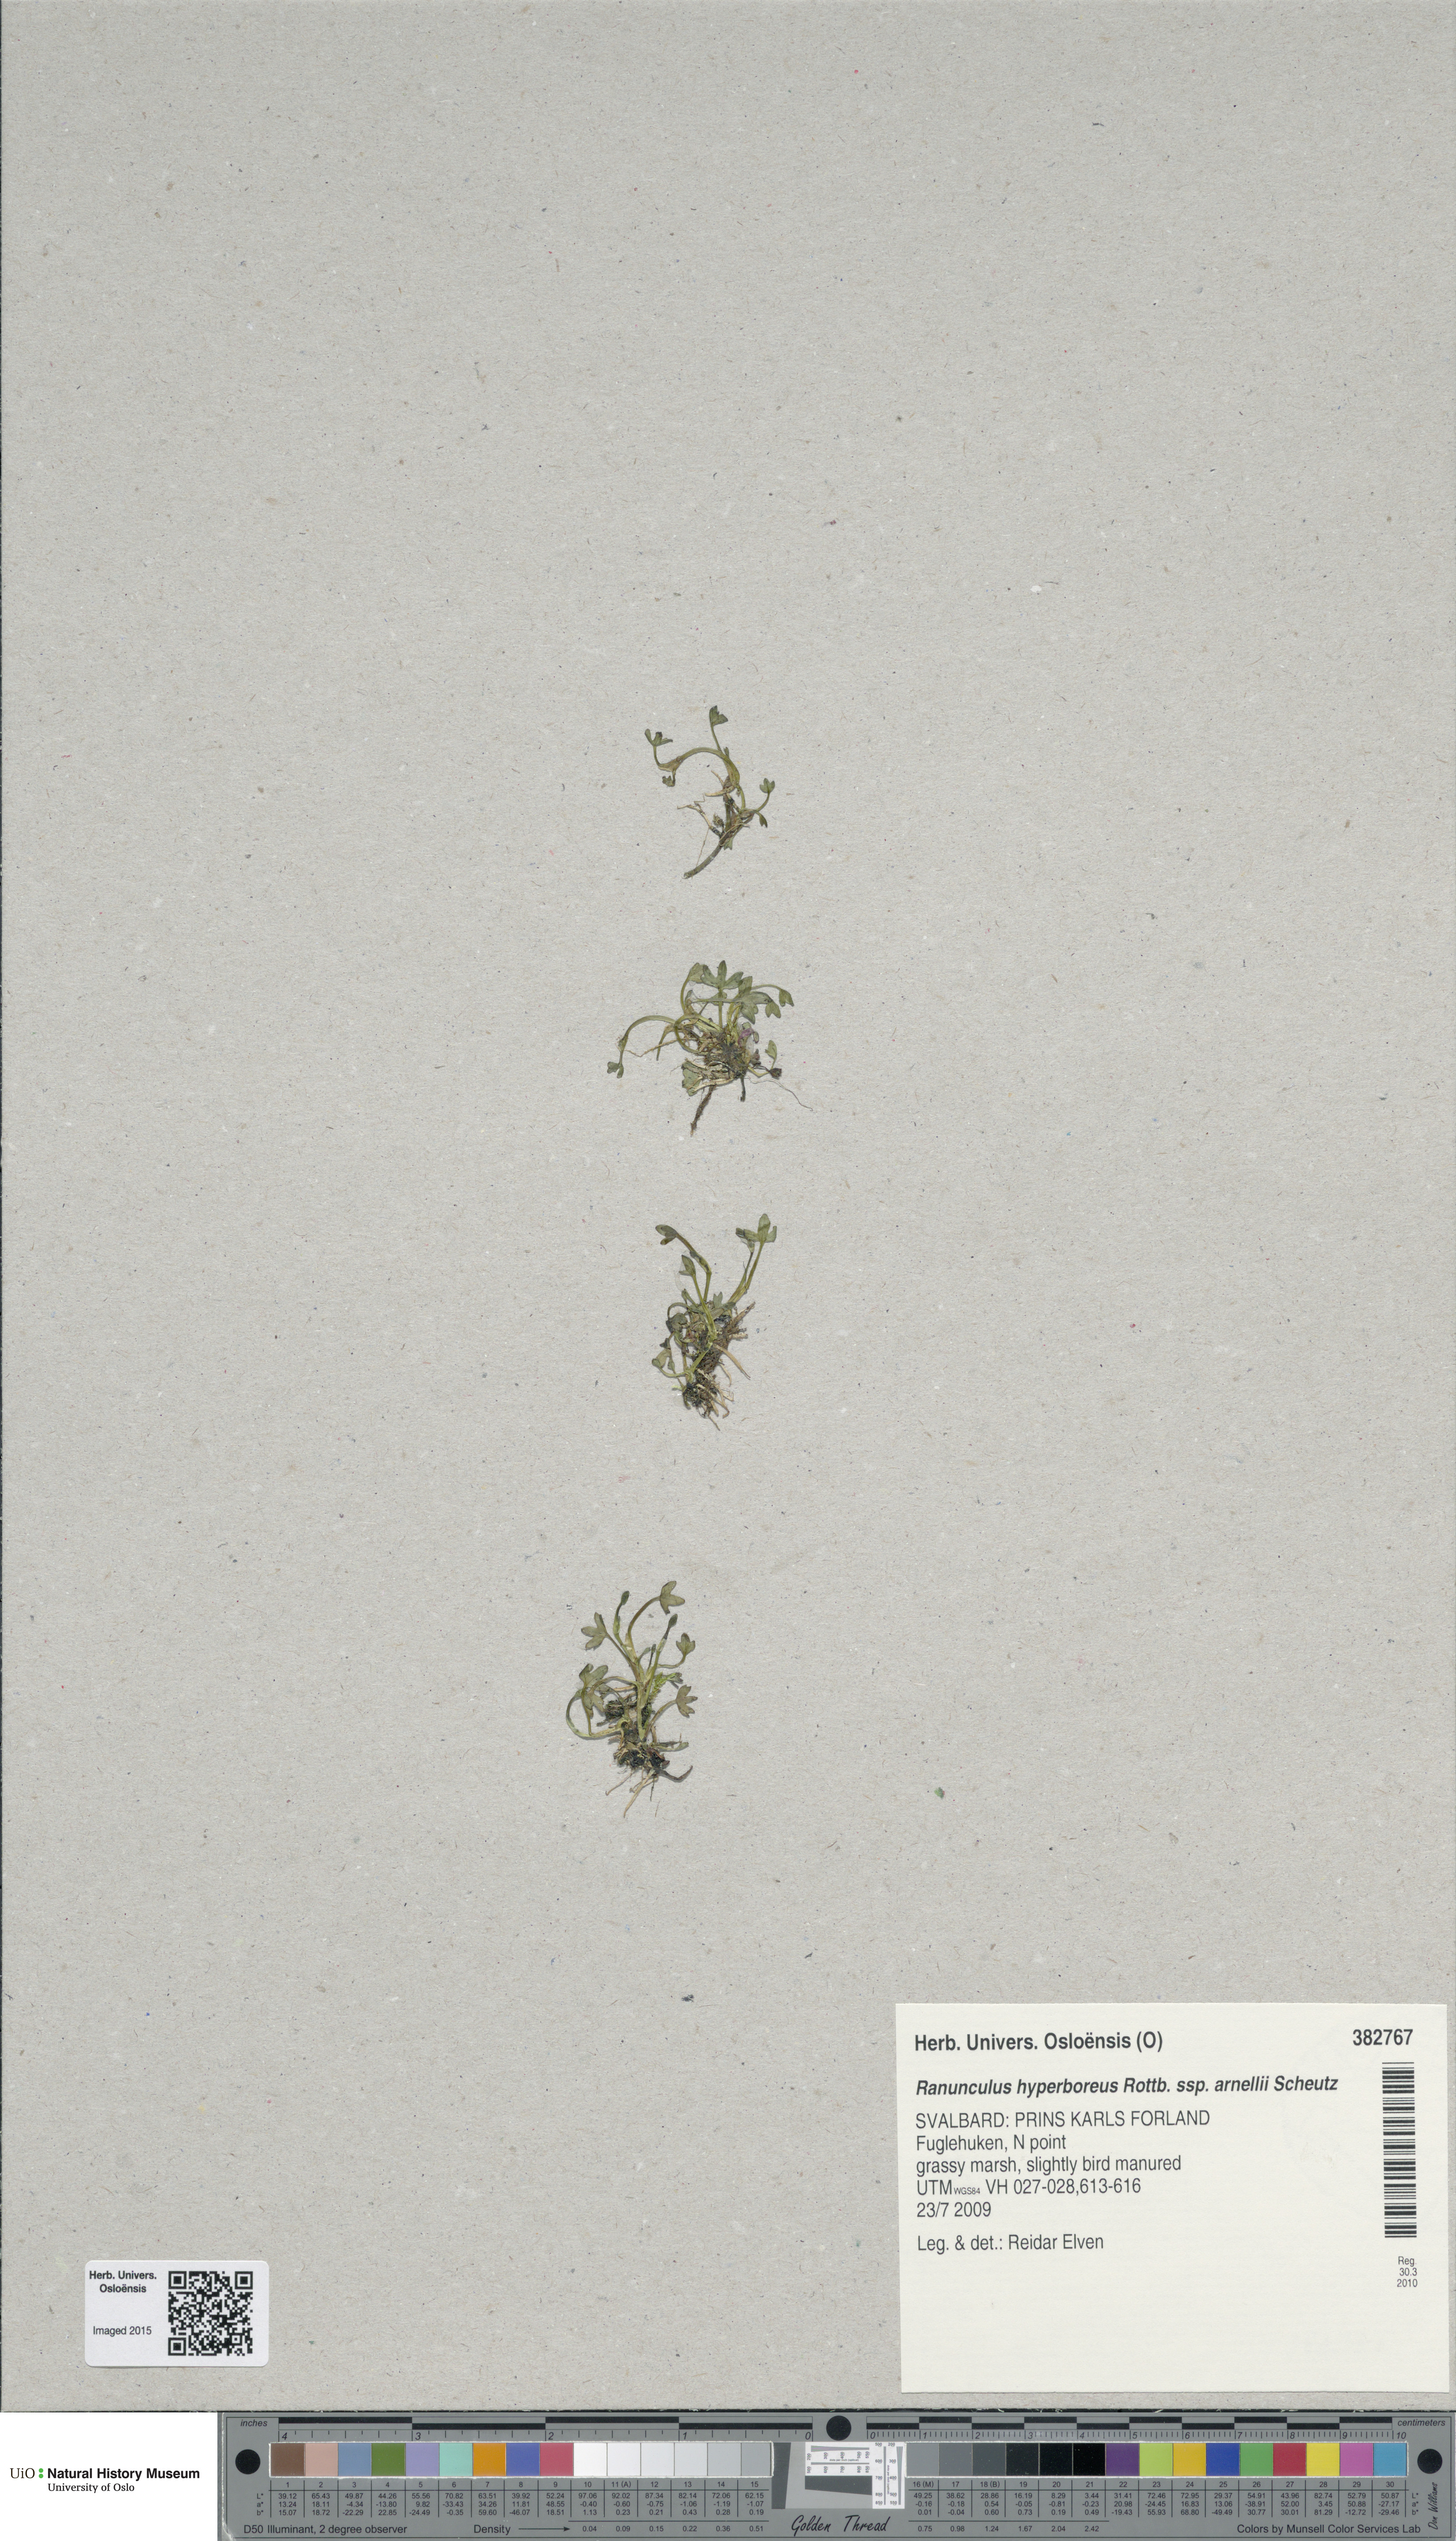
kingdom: Plantae
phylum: Tracheophyta
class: Magnoliopsida
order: Ranunculales
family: Ranunculaceae
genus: Ranunculus
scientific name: Ranunculus hyperboreus
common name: Arctic buttercup
